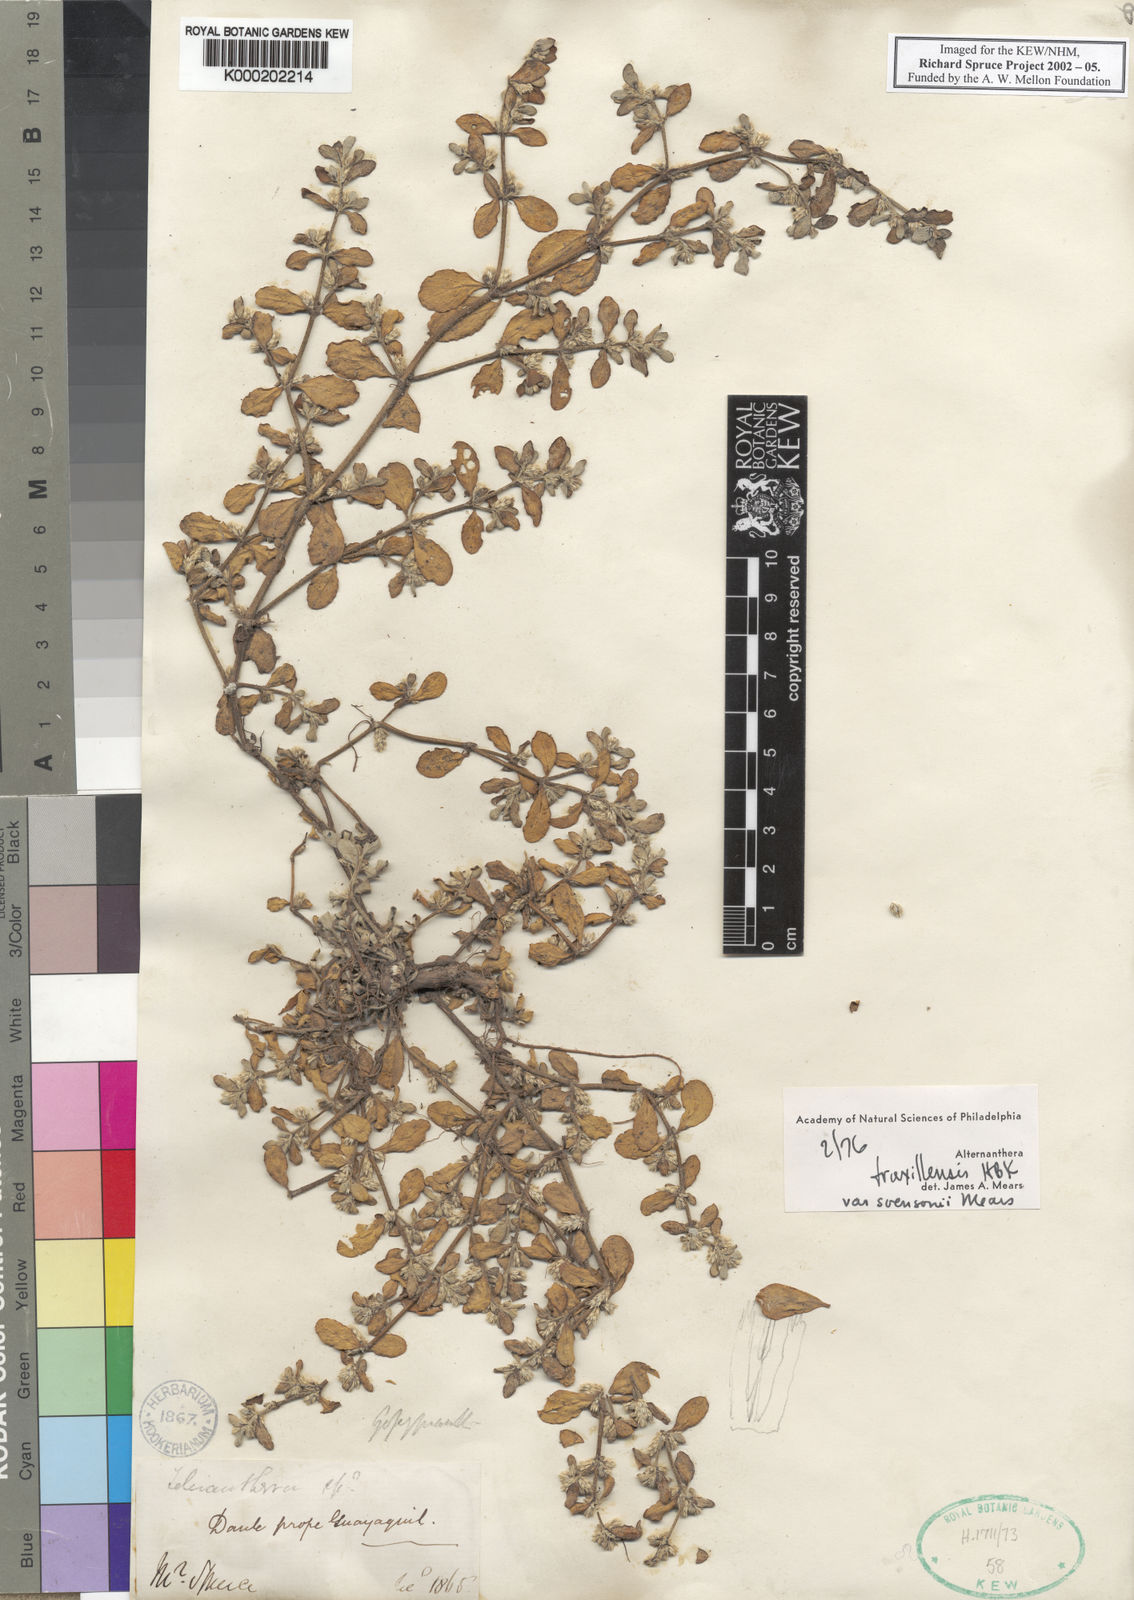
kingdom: Plantae
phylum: Tracheophyta
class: Magnoliopsida
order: Caryophyllales
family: Amaranthaceae
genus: Alternanthera
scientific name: Alternanthera
